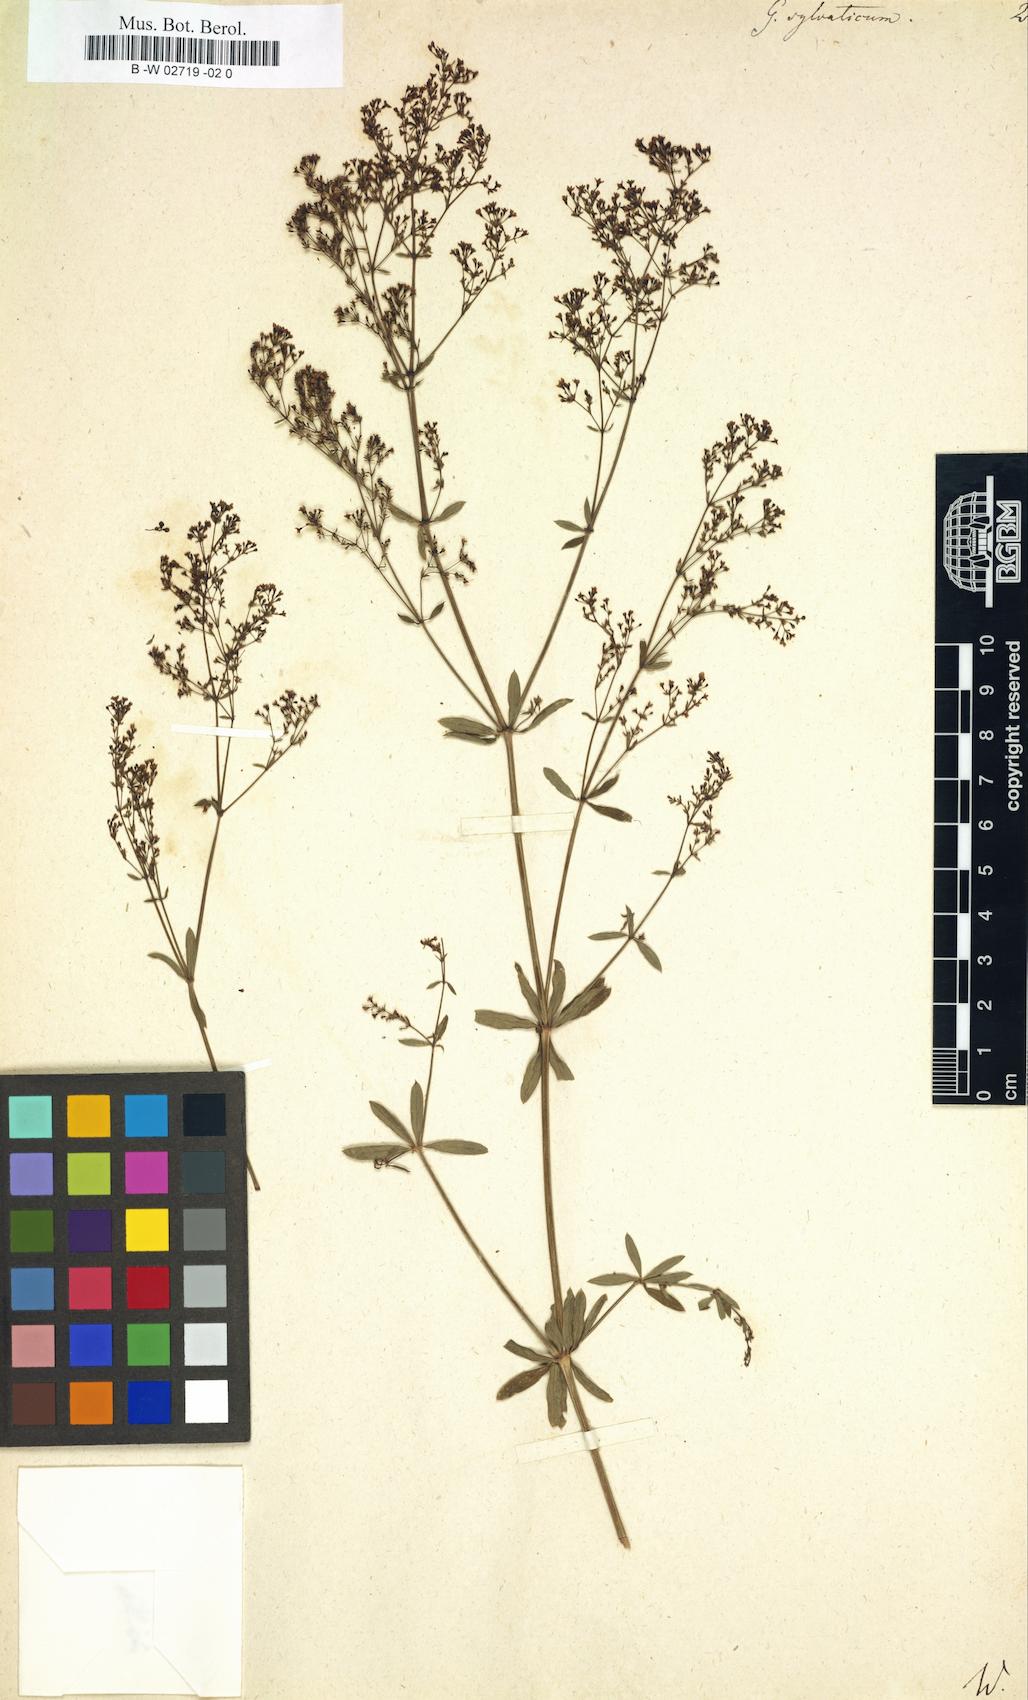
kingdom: Plantae
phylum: Tracheophyta
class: Magnoliopsida
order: Gentianales
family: Rubiaceae
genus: Galium
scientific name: Galium sylvaticum
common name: Wood bedstraw
